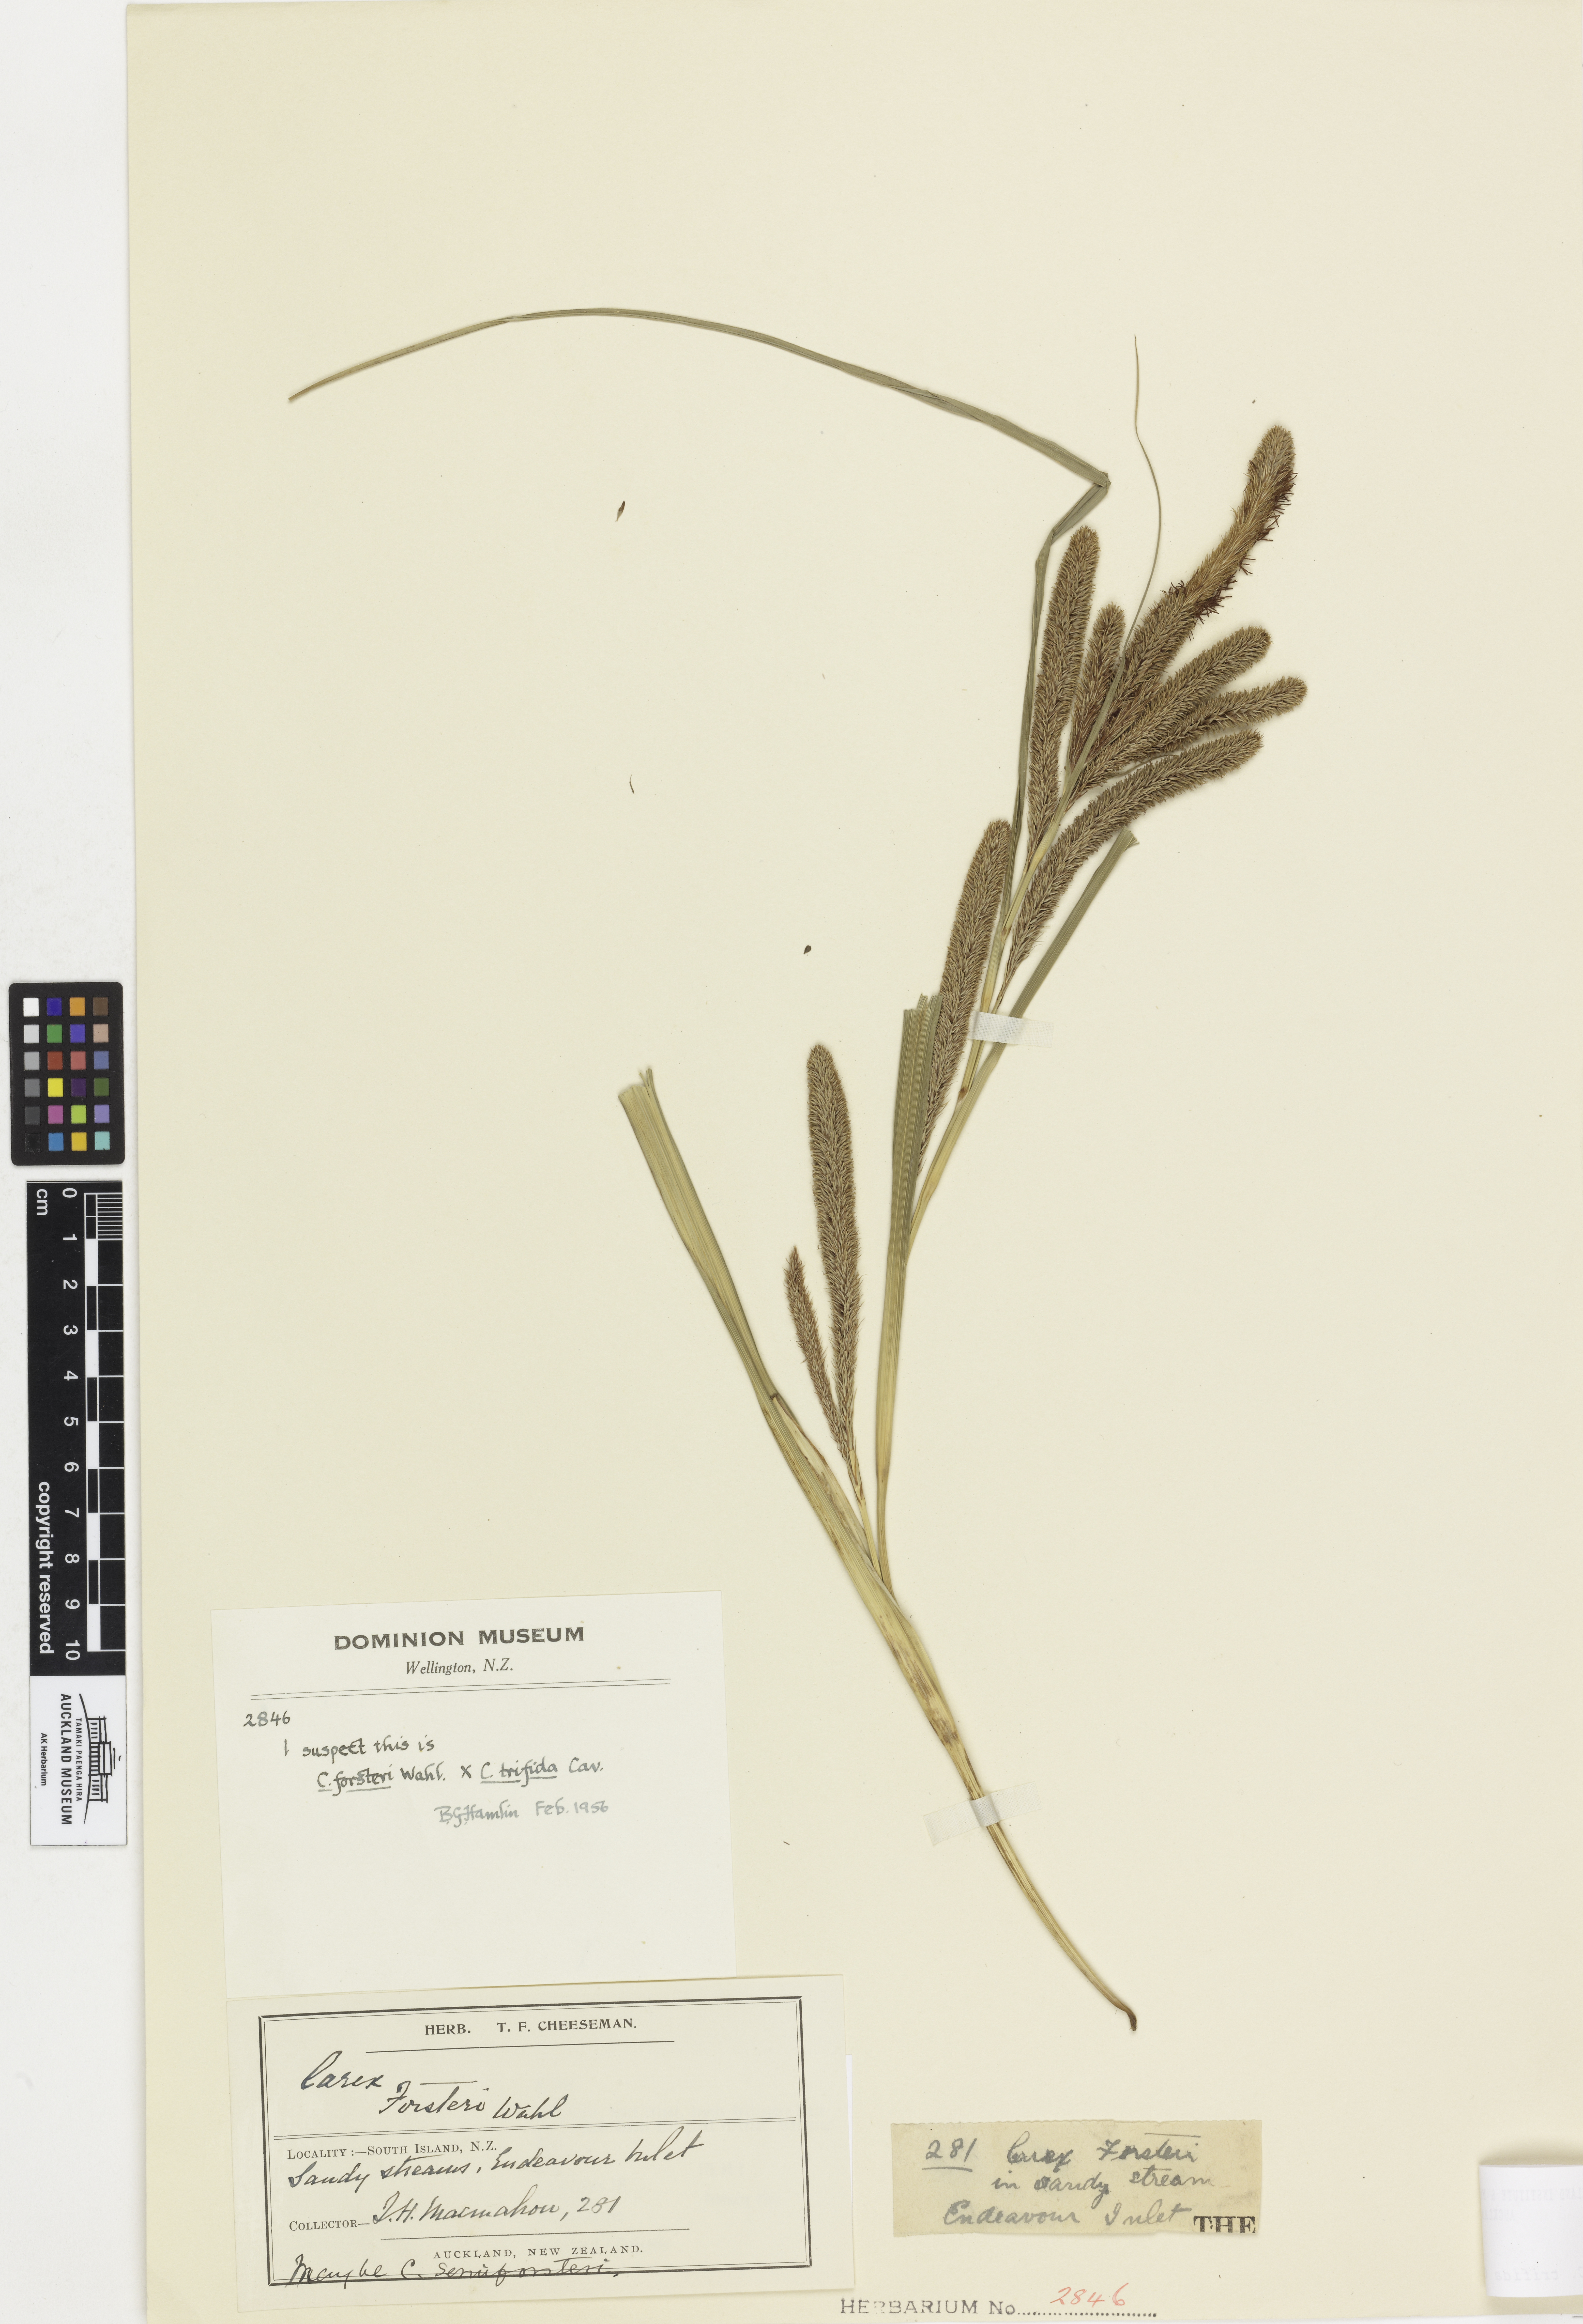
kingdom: Plantae
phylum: Tracheophyta
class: Liliopsida
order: Poales
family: Cyperaceae
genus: Carex
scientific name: Carex
